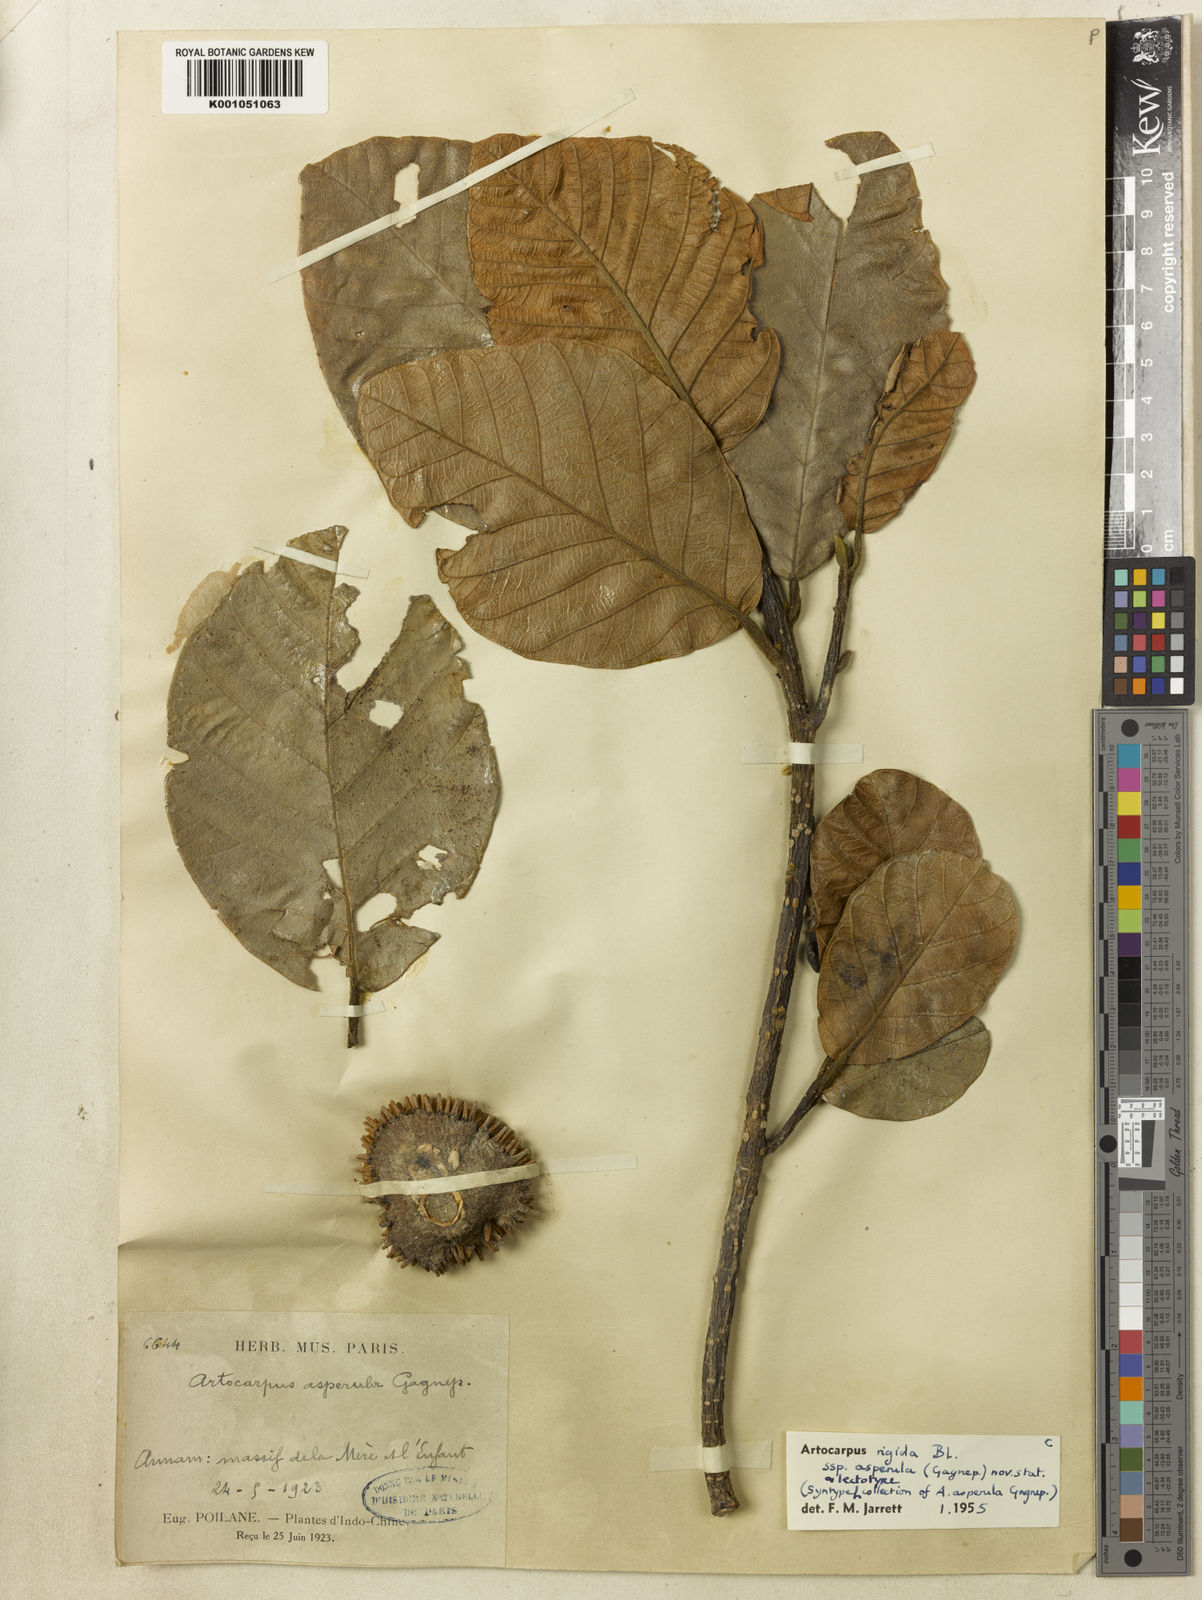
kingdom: Plantae
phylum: Tracheophyta
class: Magnoliopsida
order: Rosales
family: Moraceae
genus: Artocarpus
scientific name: Artocarpus rigidus
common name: Monkey-jack
